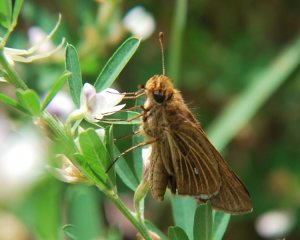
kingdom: Animalia
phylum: Arthropoda
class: Insecta
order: Lepidoptera
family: Hesperiidae
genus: Panoquina
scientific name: Panoquina panoquin
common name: Salt Marsh Skipper
